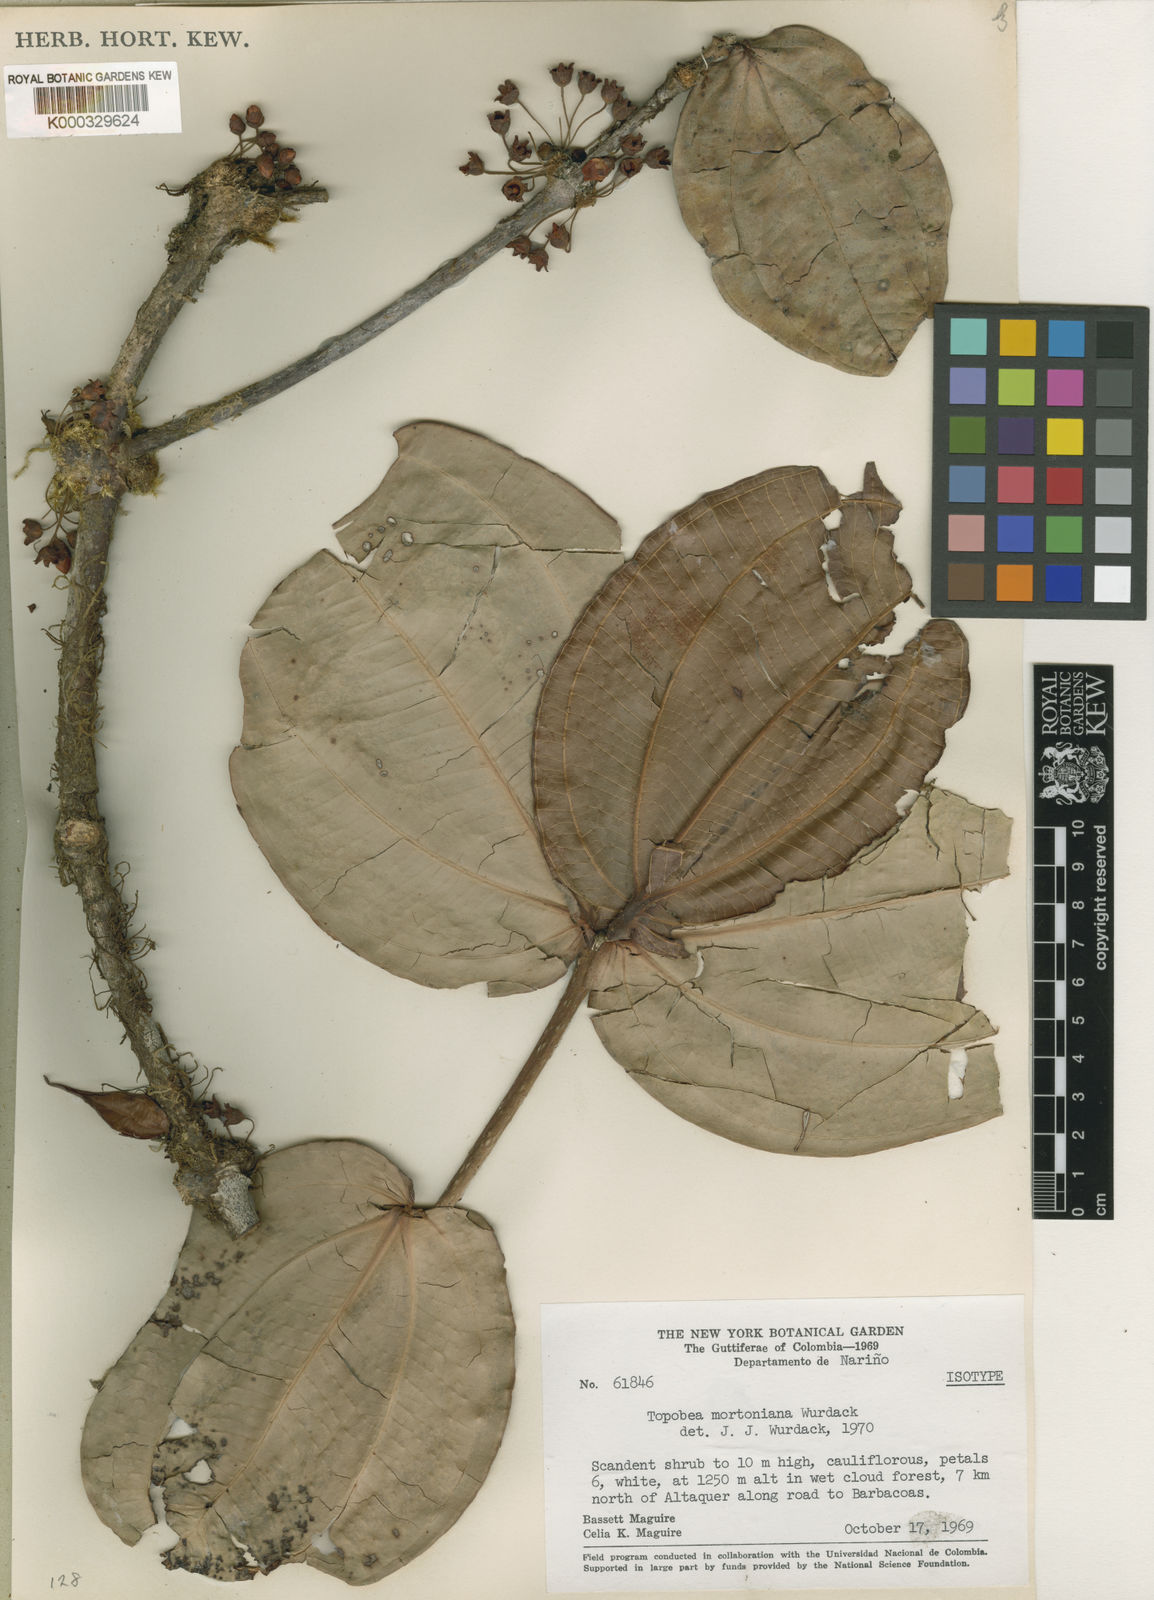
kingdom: Plantae
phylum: Tracheophyta
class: Magnoliopsida
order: Myrtales
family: Melastomataceae
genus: Blakea
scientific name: Blakea mortoniana
